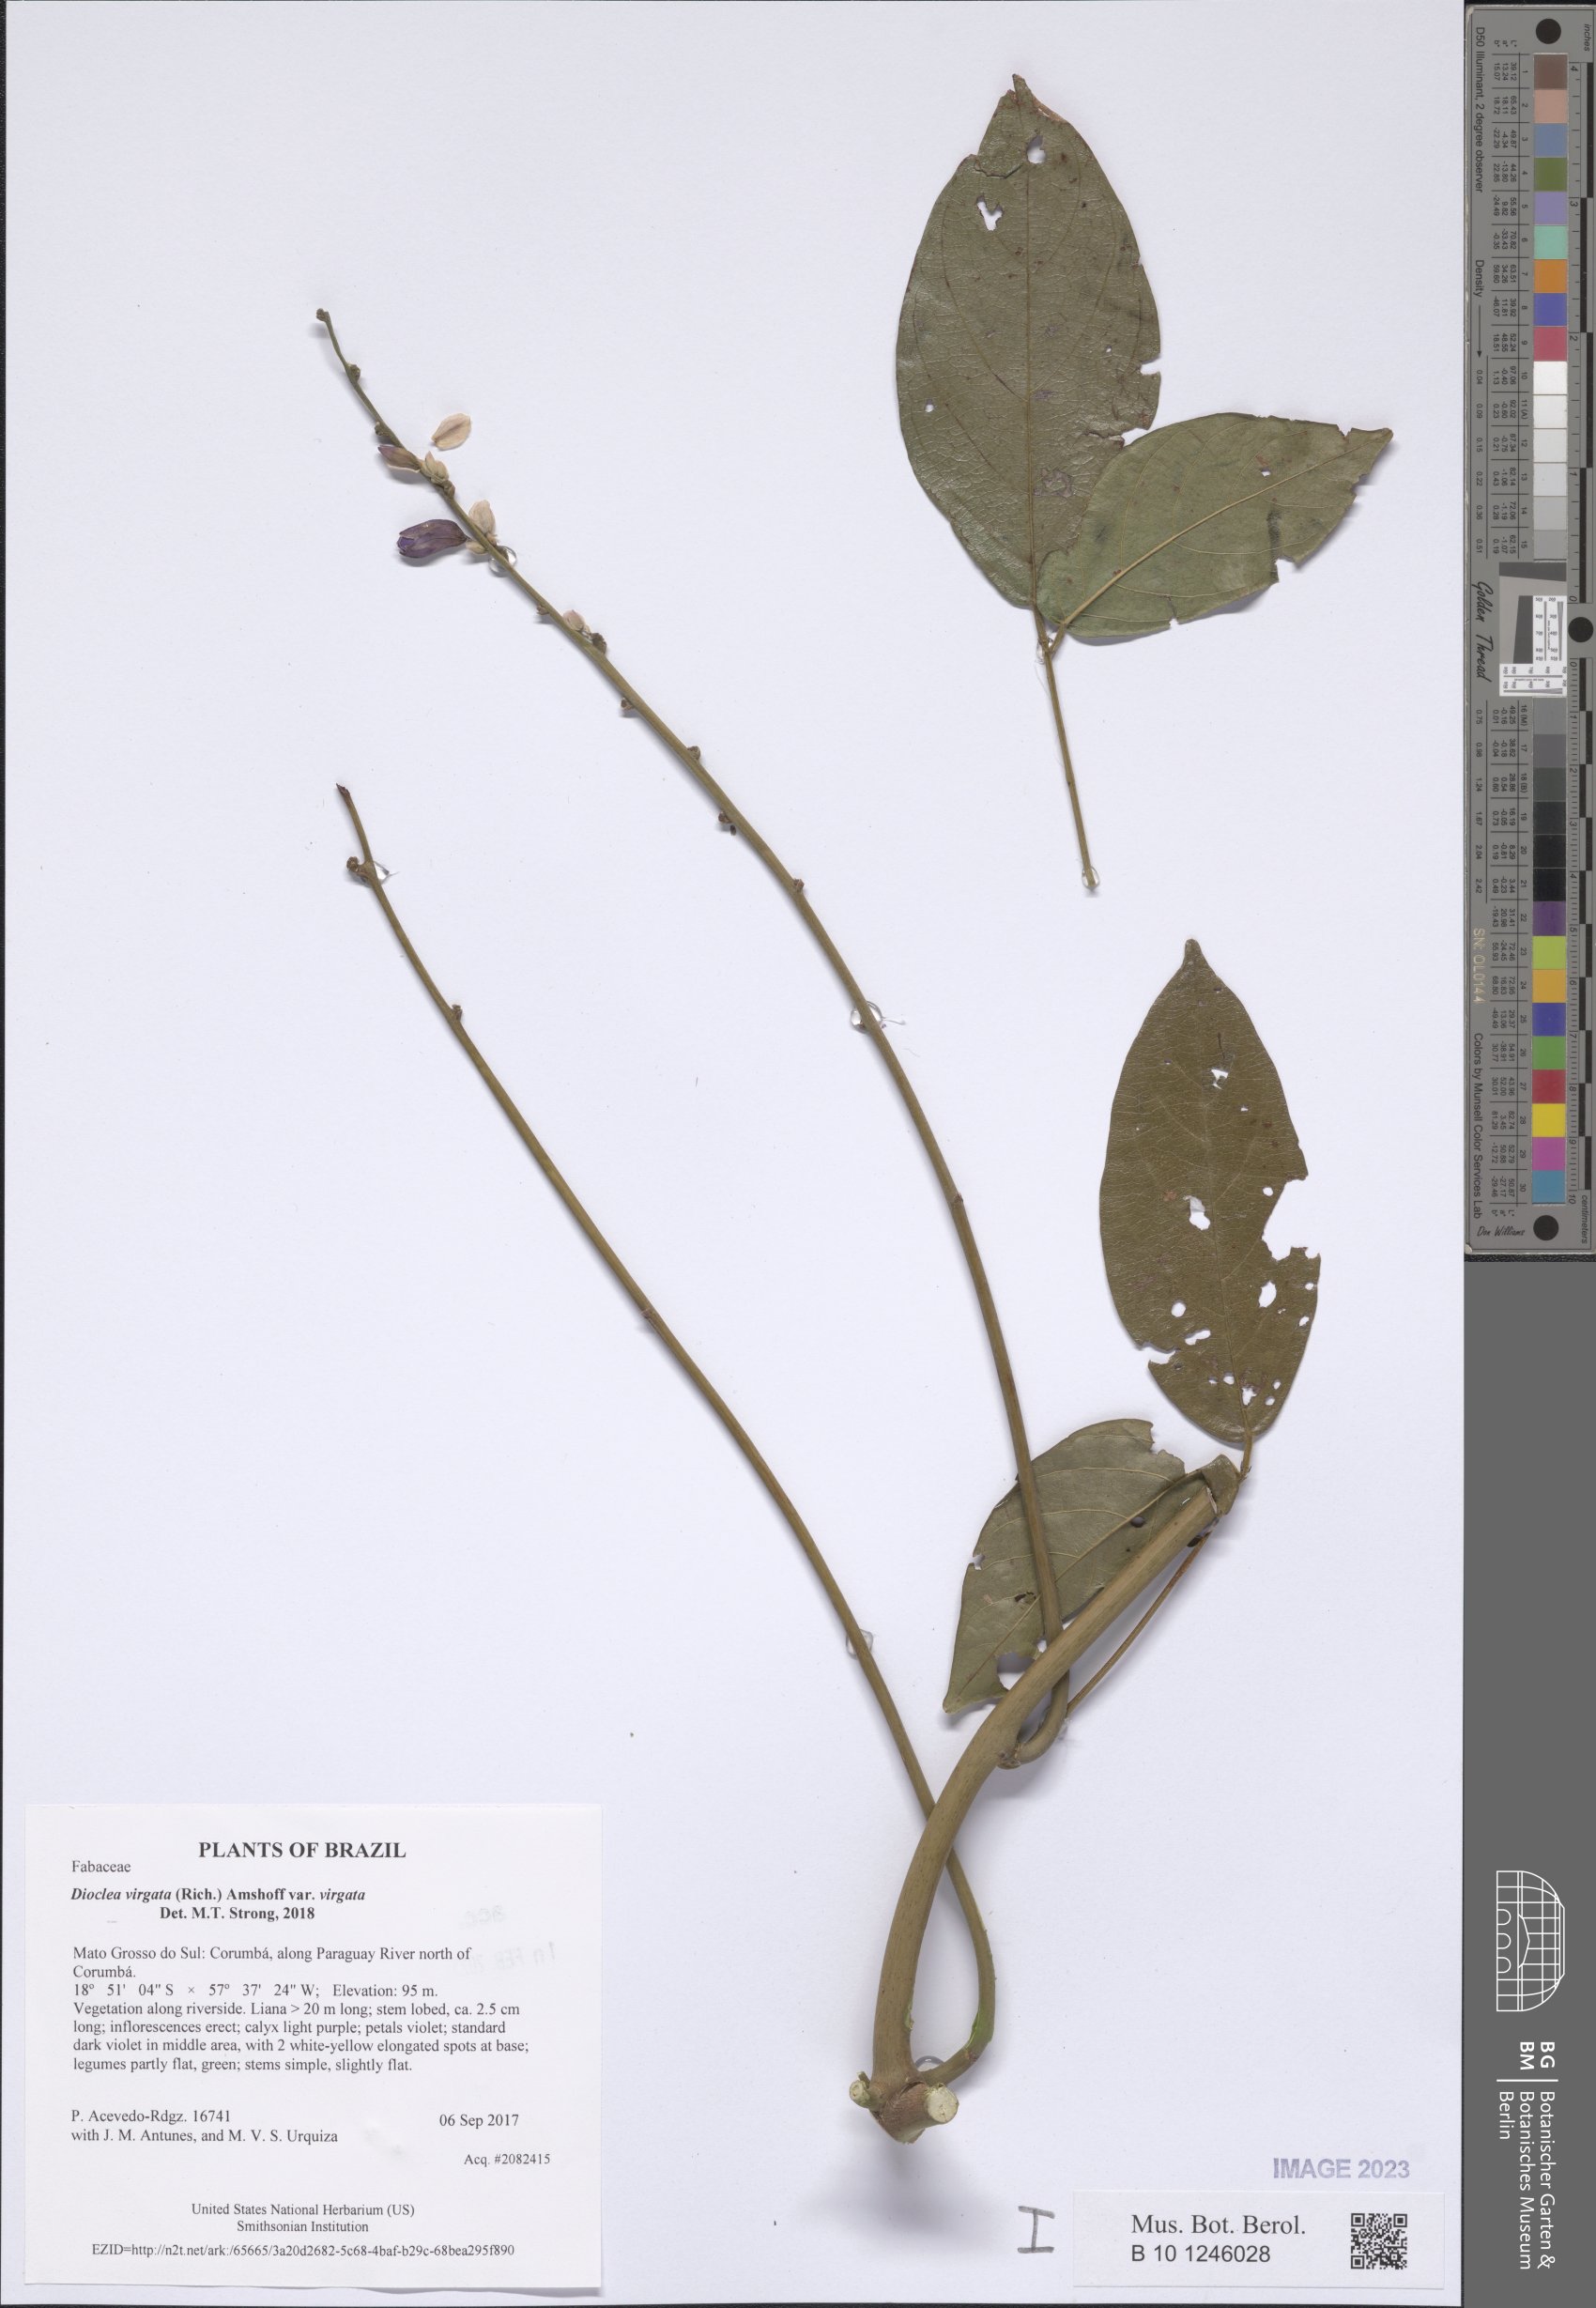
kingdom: Plantae
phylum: Tracheophyta
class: Magnoliopsida
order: Fabales
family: Fabaceae
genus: Dioclea
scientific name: Dioclea virgata
